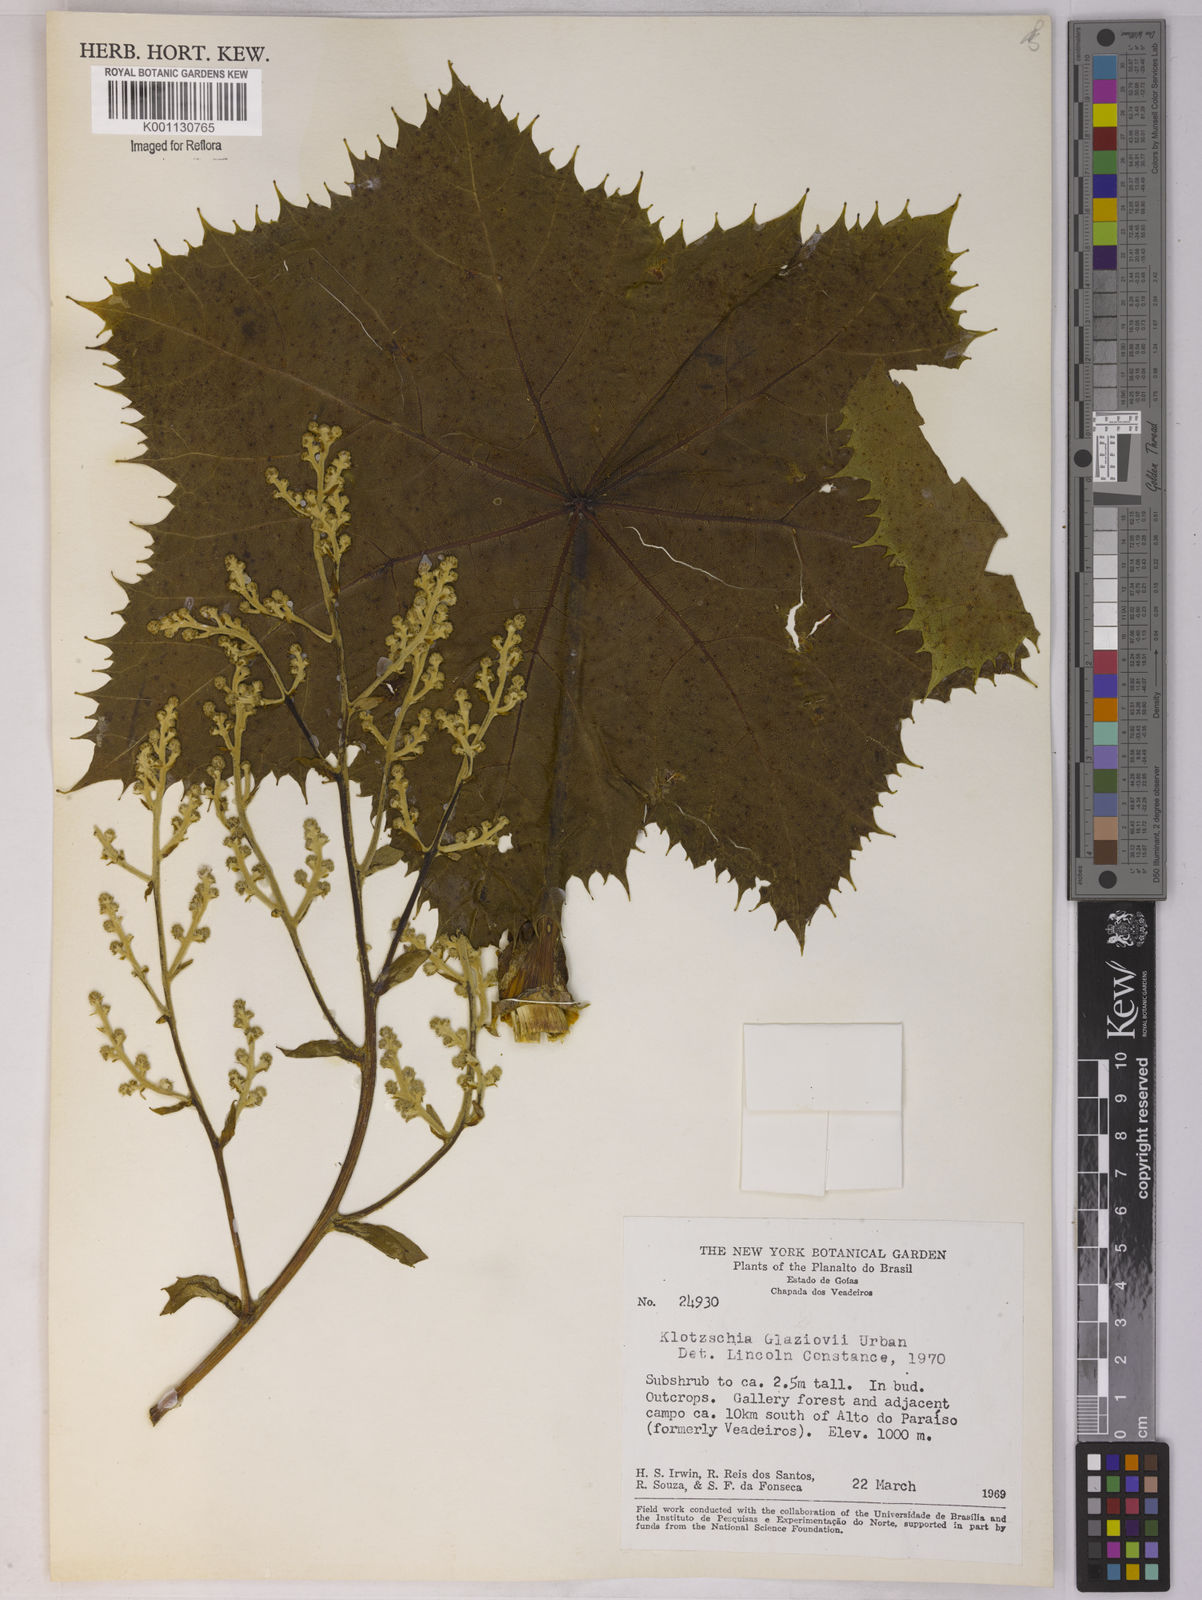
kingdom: Plantae
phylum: Tracheophyta
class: Magnoliopsida
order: Apiales
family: Apiaceae
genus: Klotzschia
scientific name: Klotzschia glaziovii
